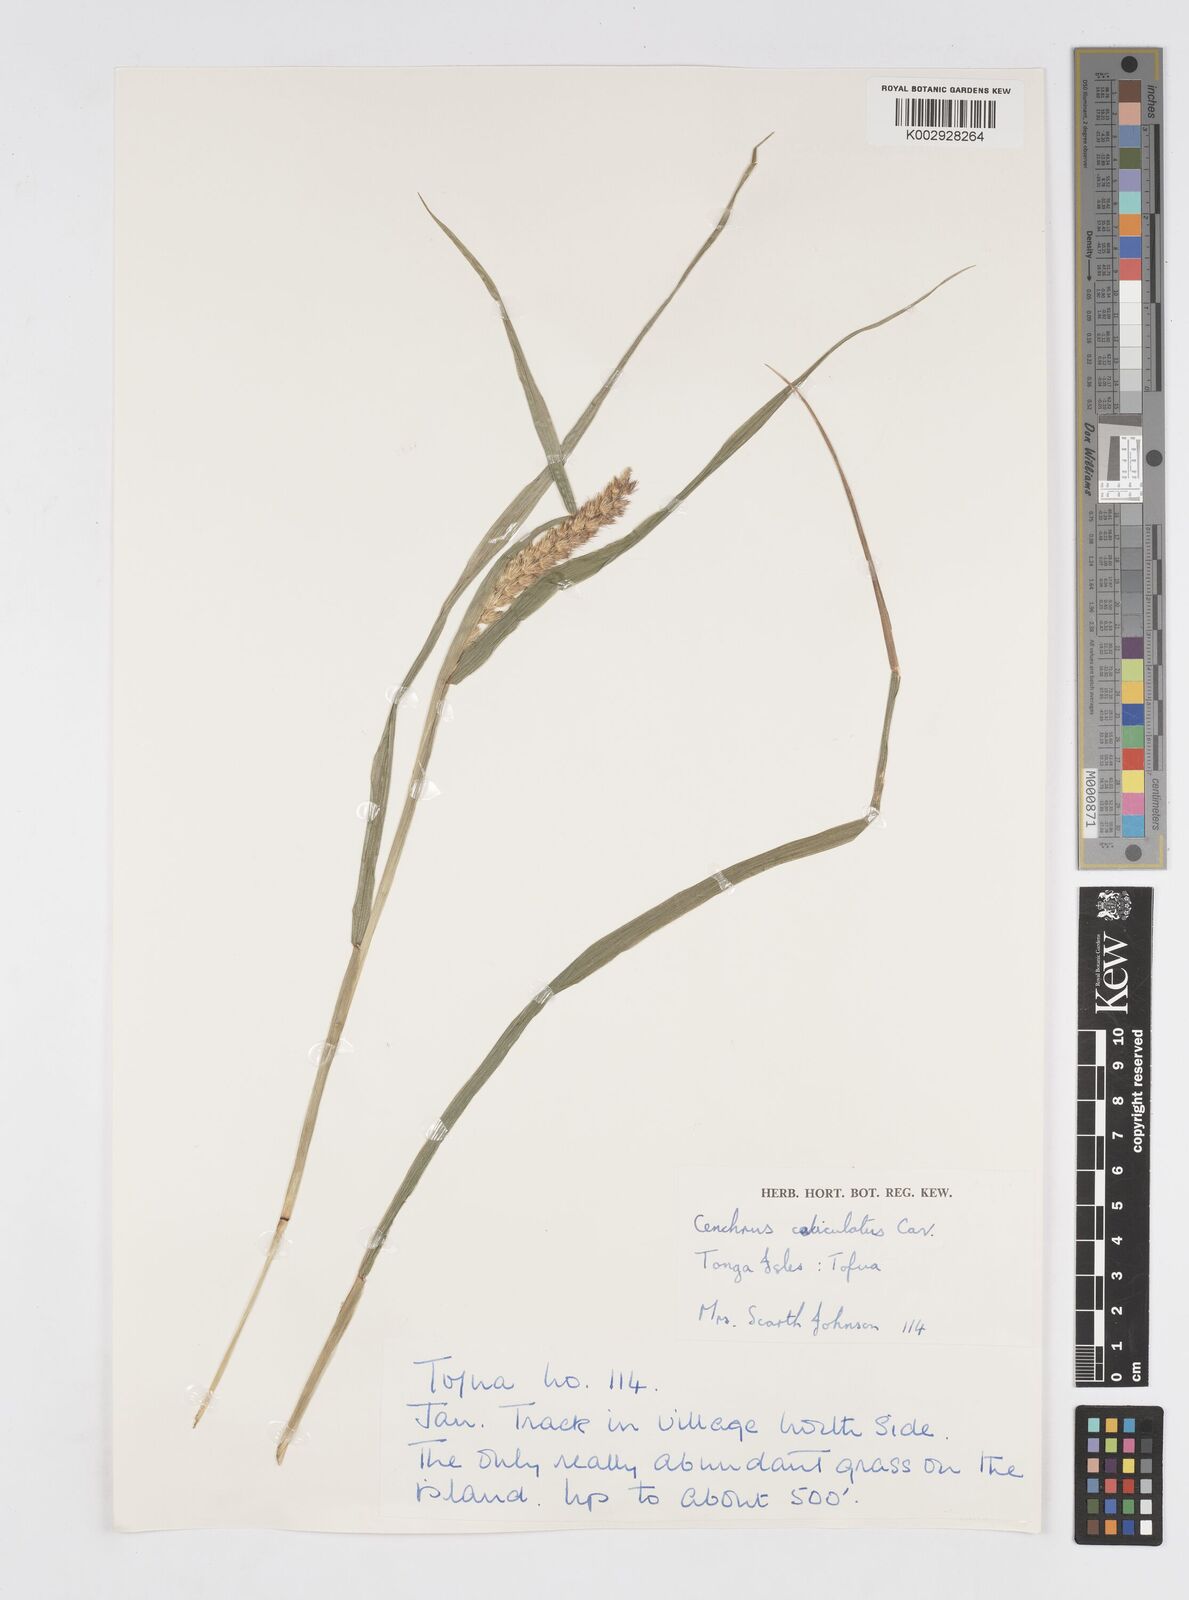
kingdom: Plantae
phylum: Tracheophyta
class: Liliopsida
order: Poales
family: Poaceae
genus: Cenchrus
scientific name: Cenchrus caliculatus
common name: Large bur grass
